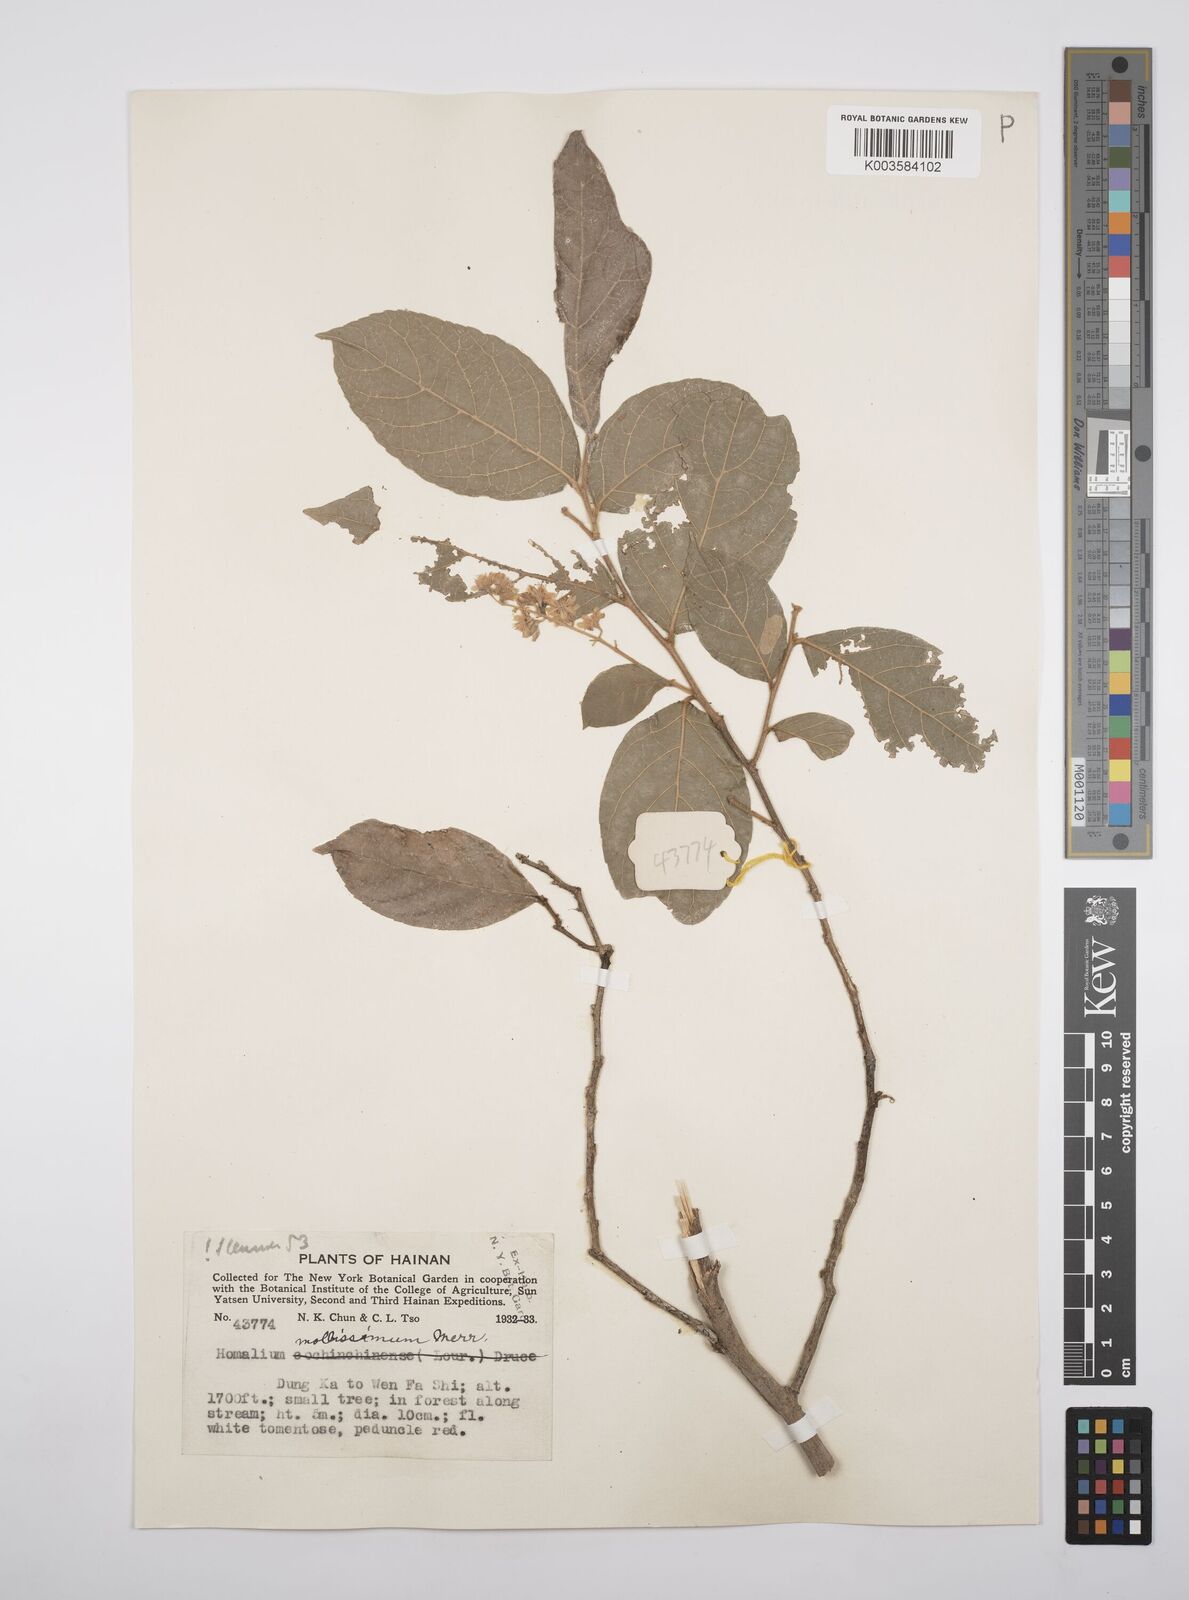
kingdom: Plantae
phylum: Tracheophyta
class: Magnoliopsida
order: Malpighiales
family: Salicaceae
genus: Homalium
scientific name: Homalium mollissimum
